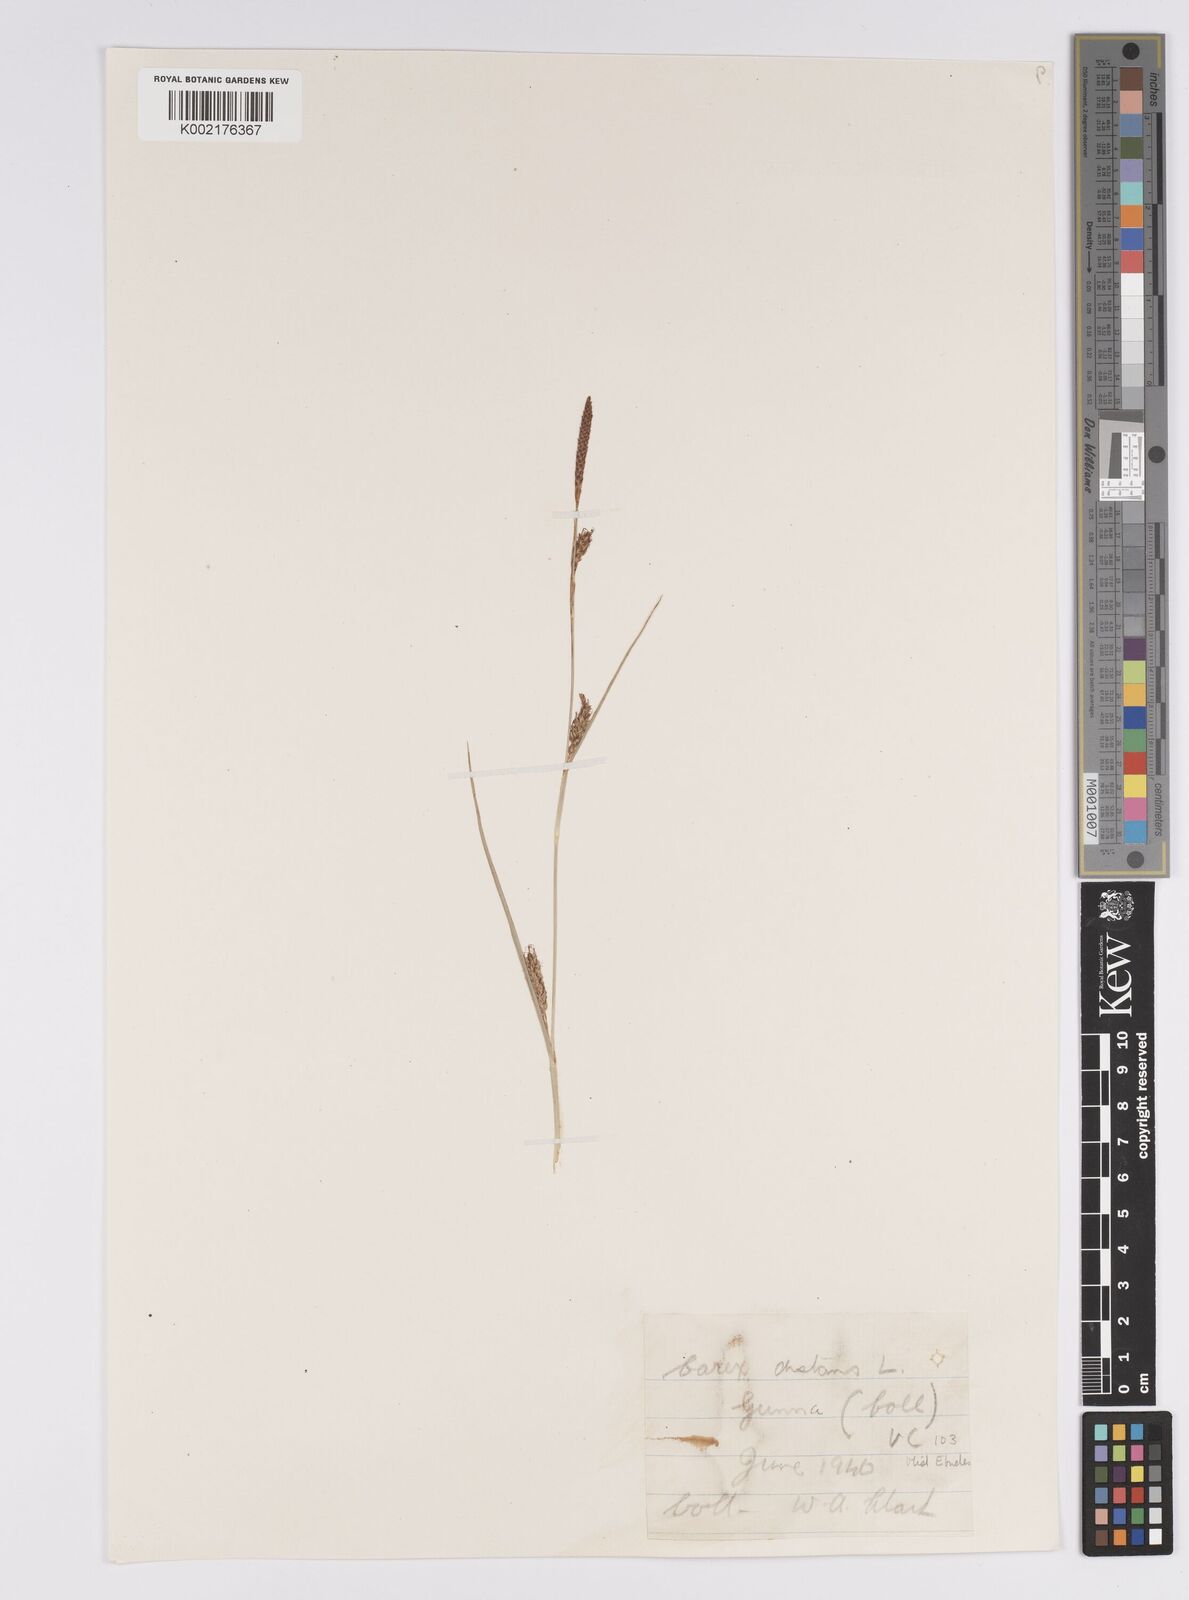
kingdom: Plantae
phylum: Tracheophyta
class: Liliopsida
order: Poales
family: Cyperaceae
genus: Carex
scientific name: Carex distans
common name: Distant sedge
